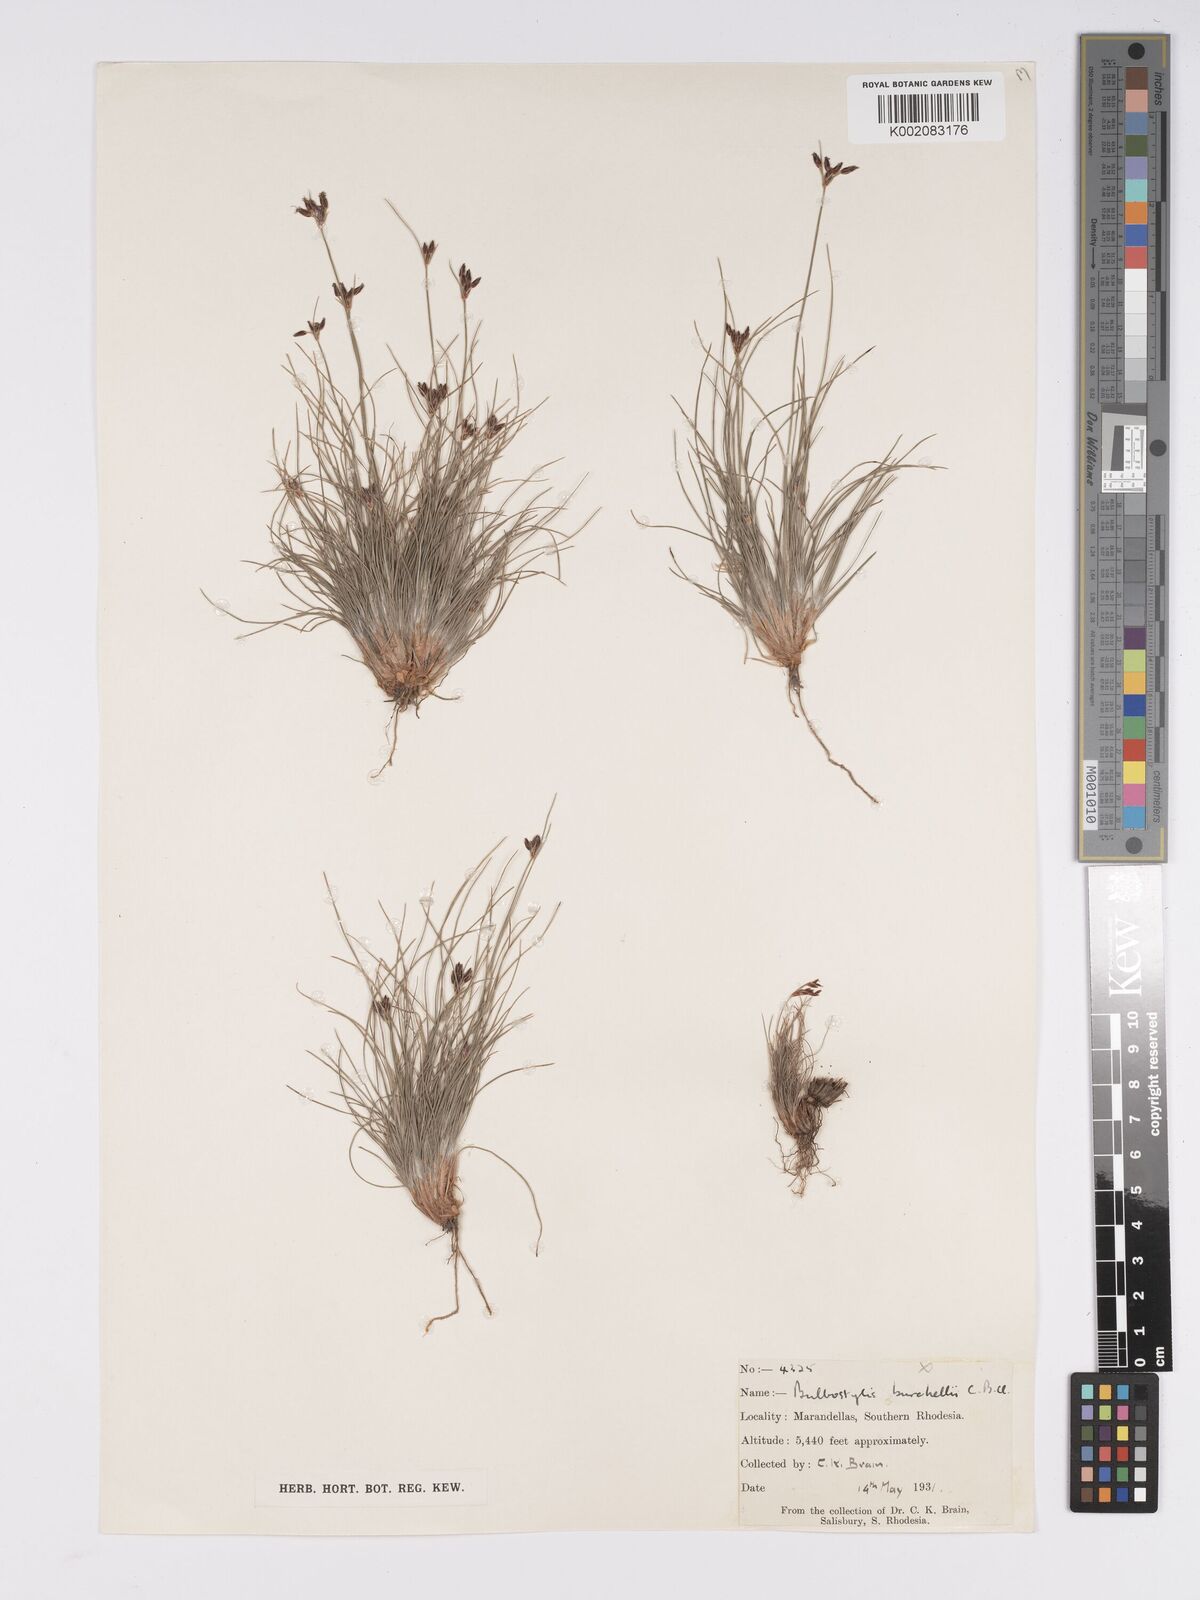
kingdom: Plantae
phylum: Tracheophyta
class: Liliopsida
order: Poales
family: Cyperaceae
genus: Bulbostylis
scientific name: Bulbostylis contexta
